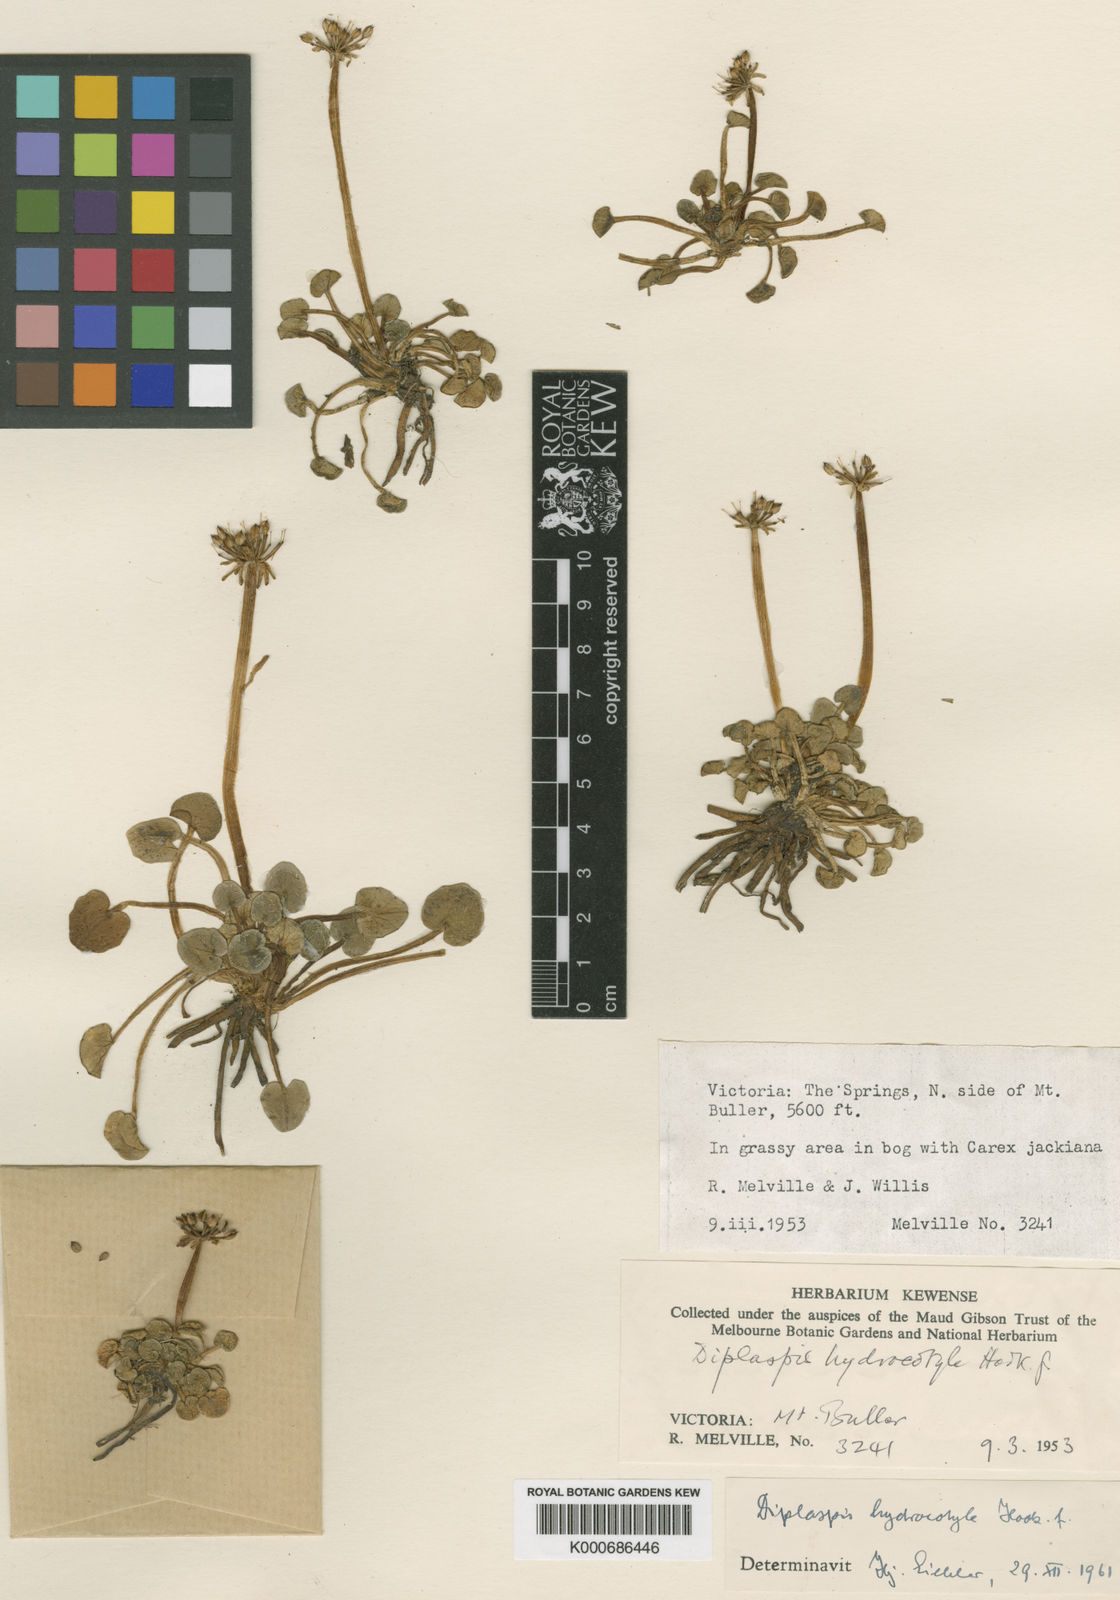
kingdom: Plantae
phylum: Tracheophyta
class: Magnoliopsida
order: Apiales
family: Apiaceae
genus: Diplaspis
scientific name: Diplaspis
